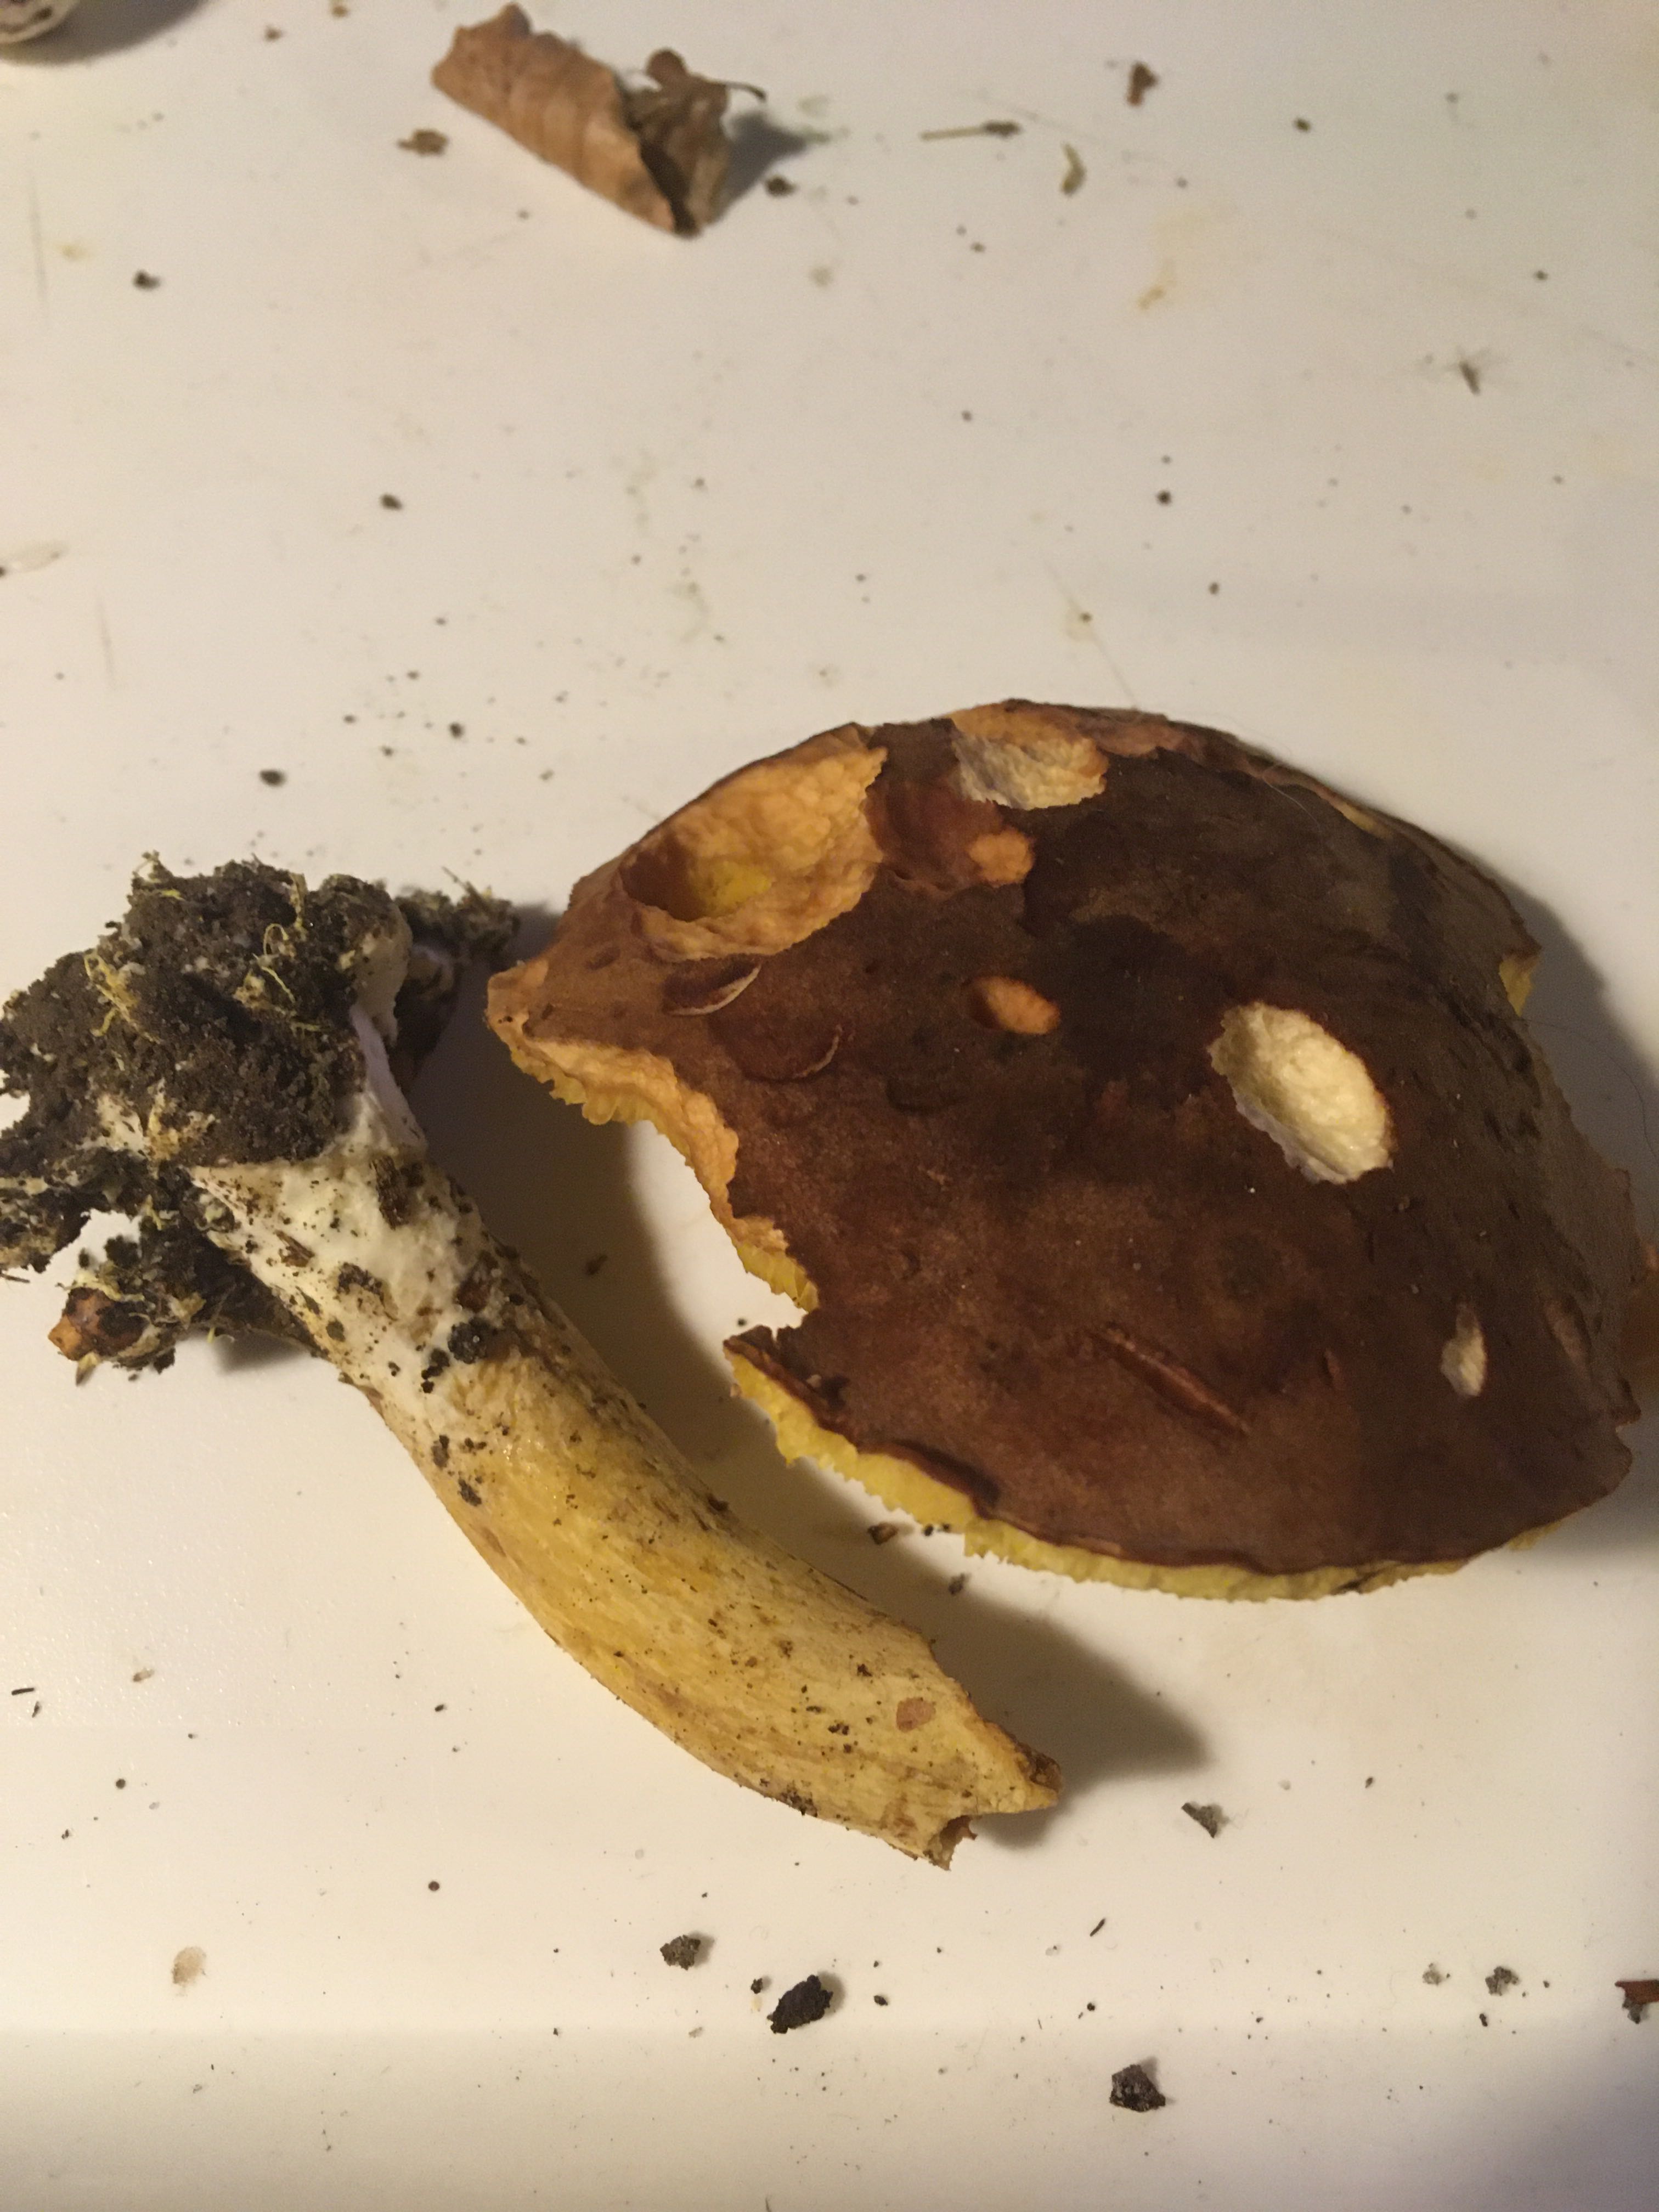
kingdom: Fungi
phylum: Basidiomycota
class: Agaricomycetes
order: Boletales
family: Boletaceae
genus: Xerocomus
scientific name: Xerocomus ferrugineus
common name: vaskeskinds-rørhat
